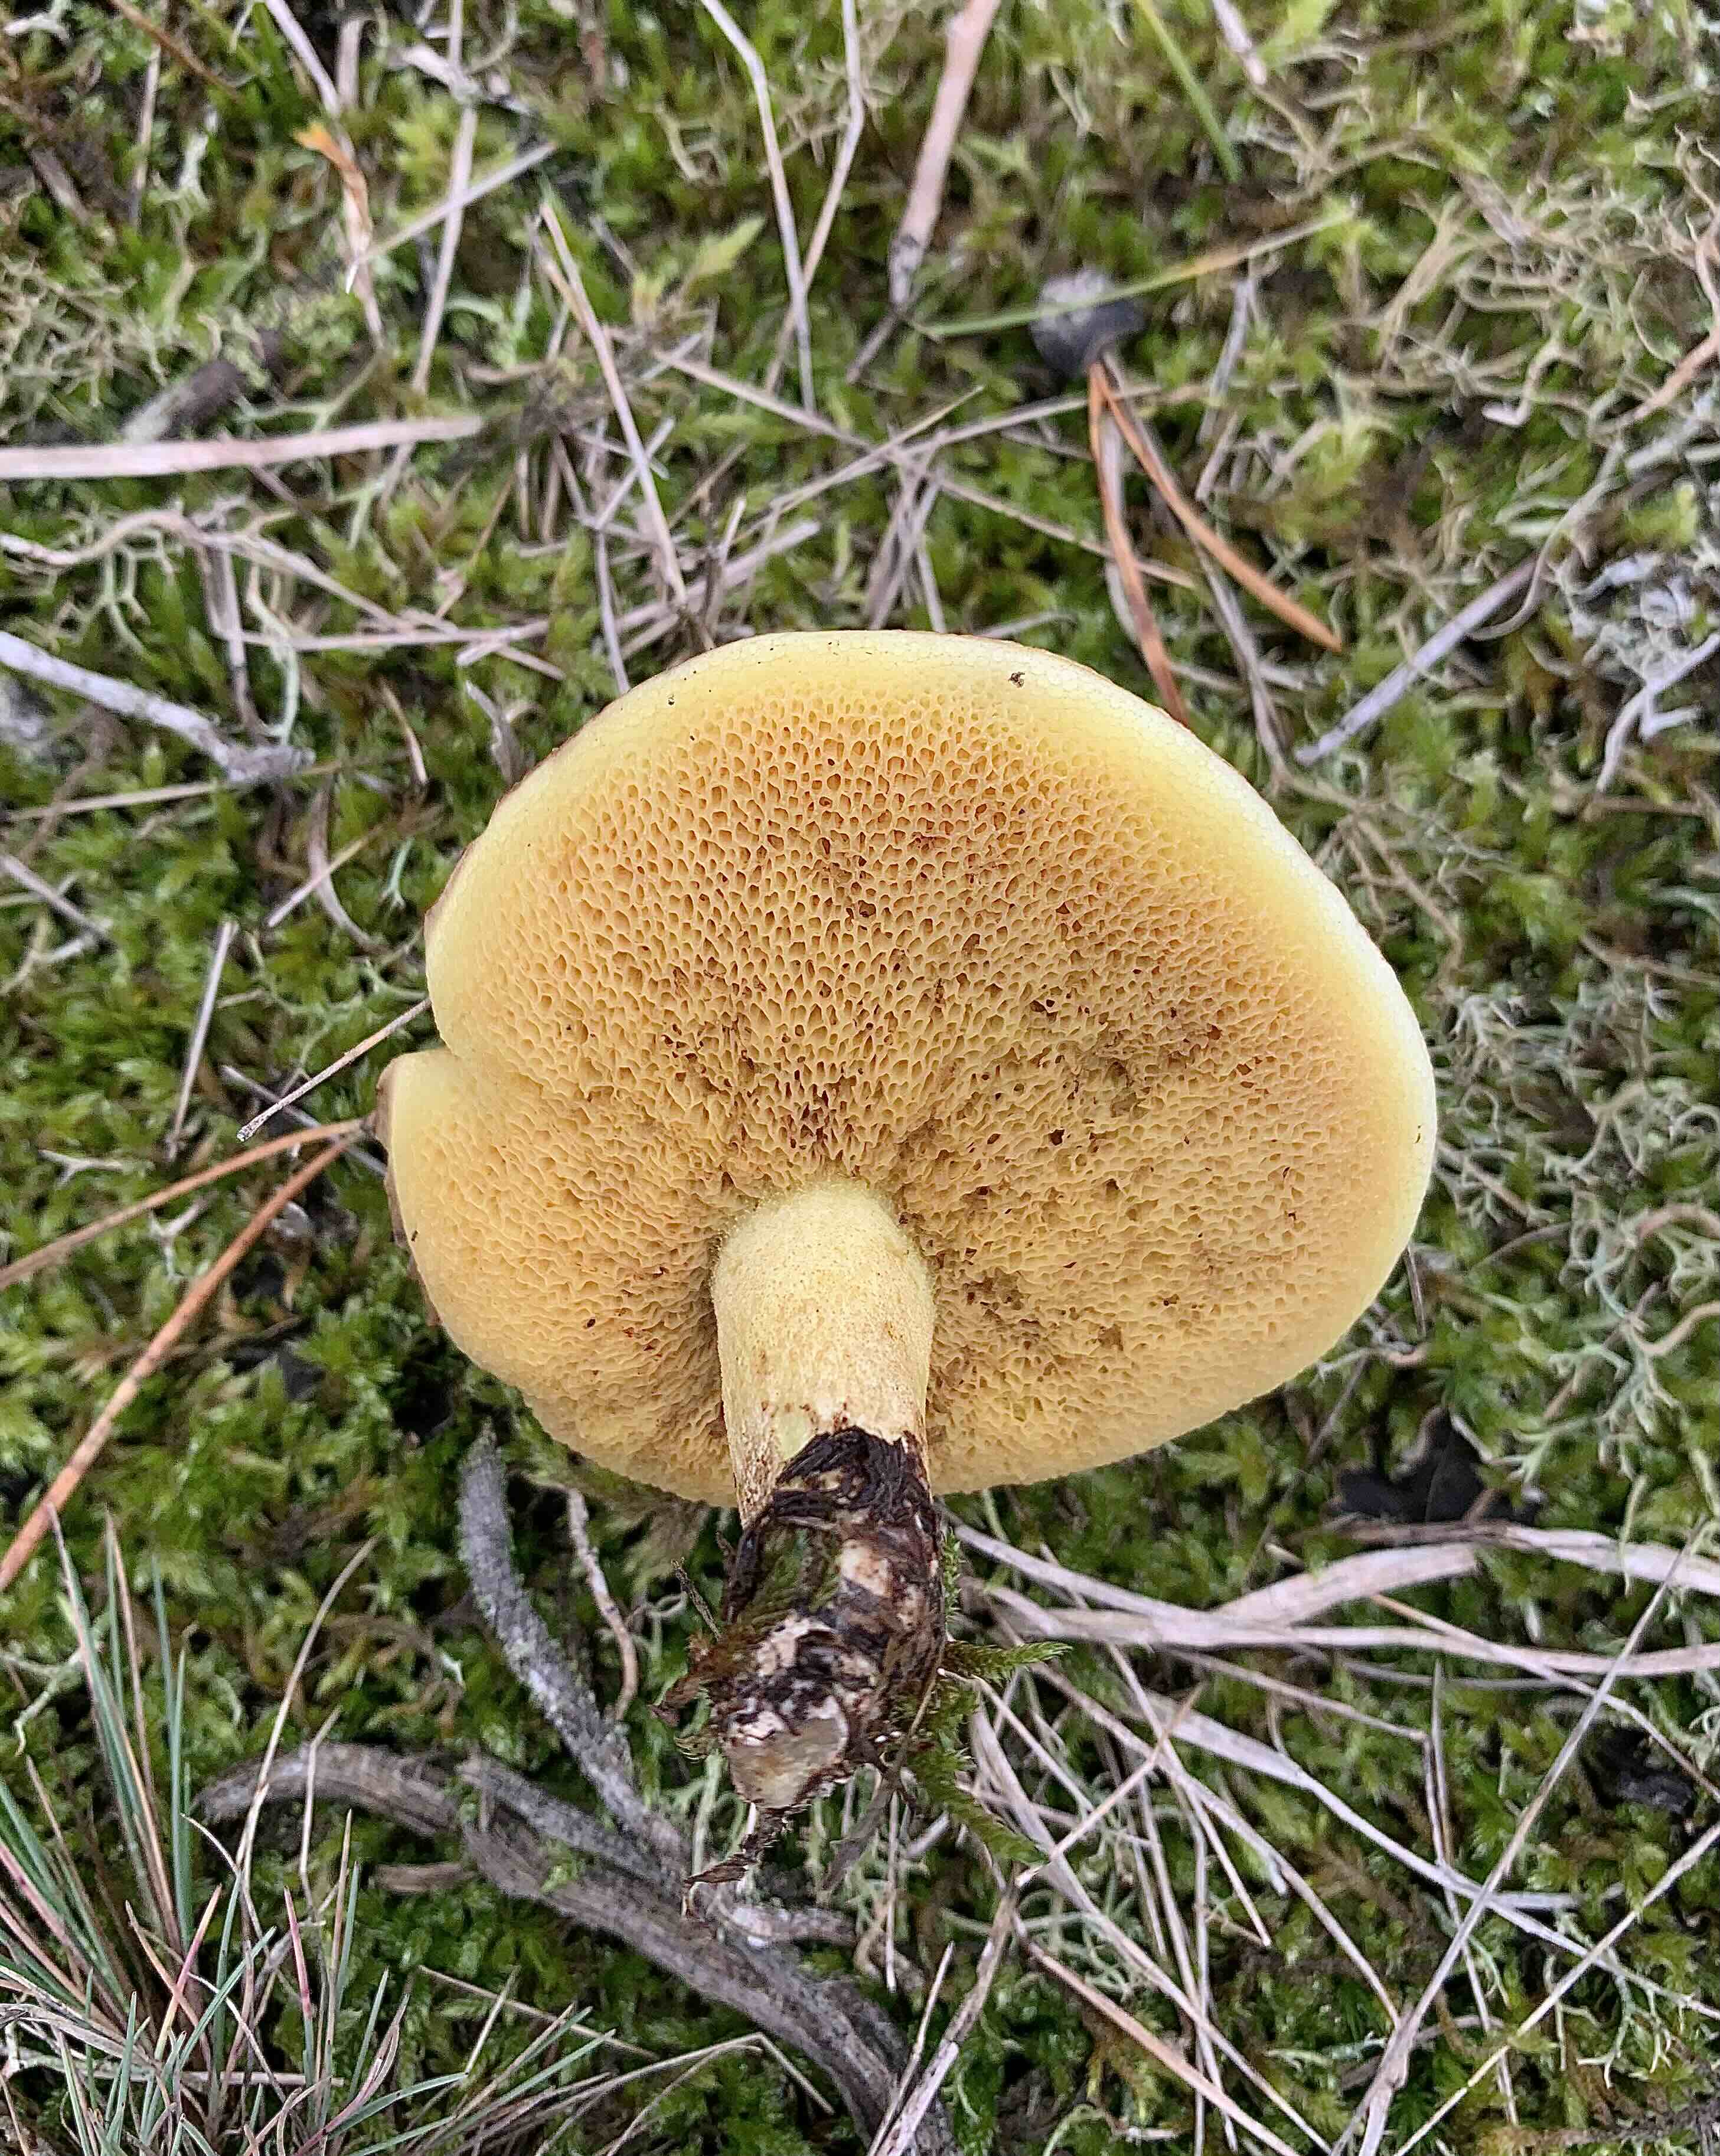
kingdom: Fungi
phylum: Basidiomycota
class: Agaricomycetes
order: Boletales
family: Suillaceae
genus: Suillus
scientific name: Suillus
